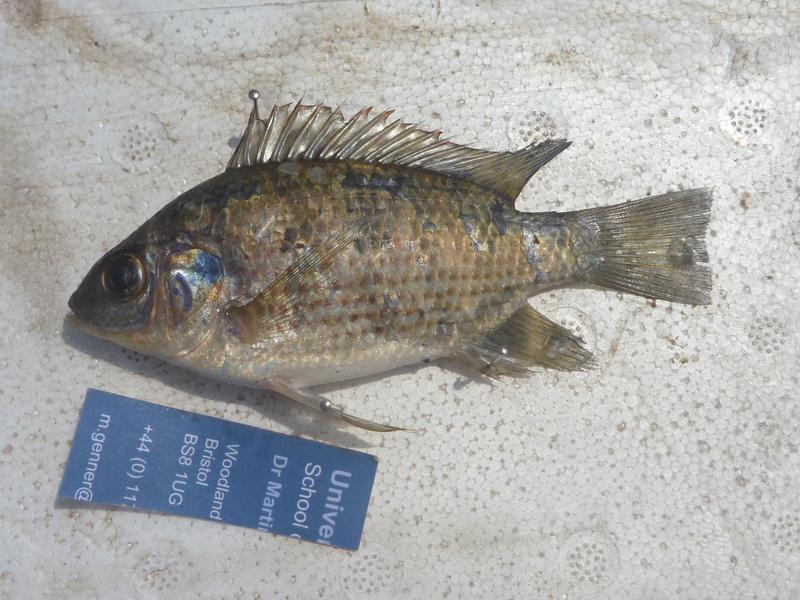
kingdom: Animalia
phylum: Chordata
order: Perciformes
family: Cichlidae
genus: Oreochromis
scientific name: Oreochromis leucostictus
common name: Blue spotted tilapia
